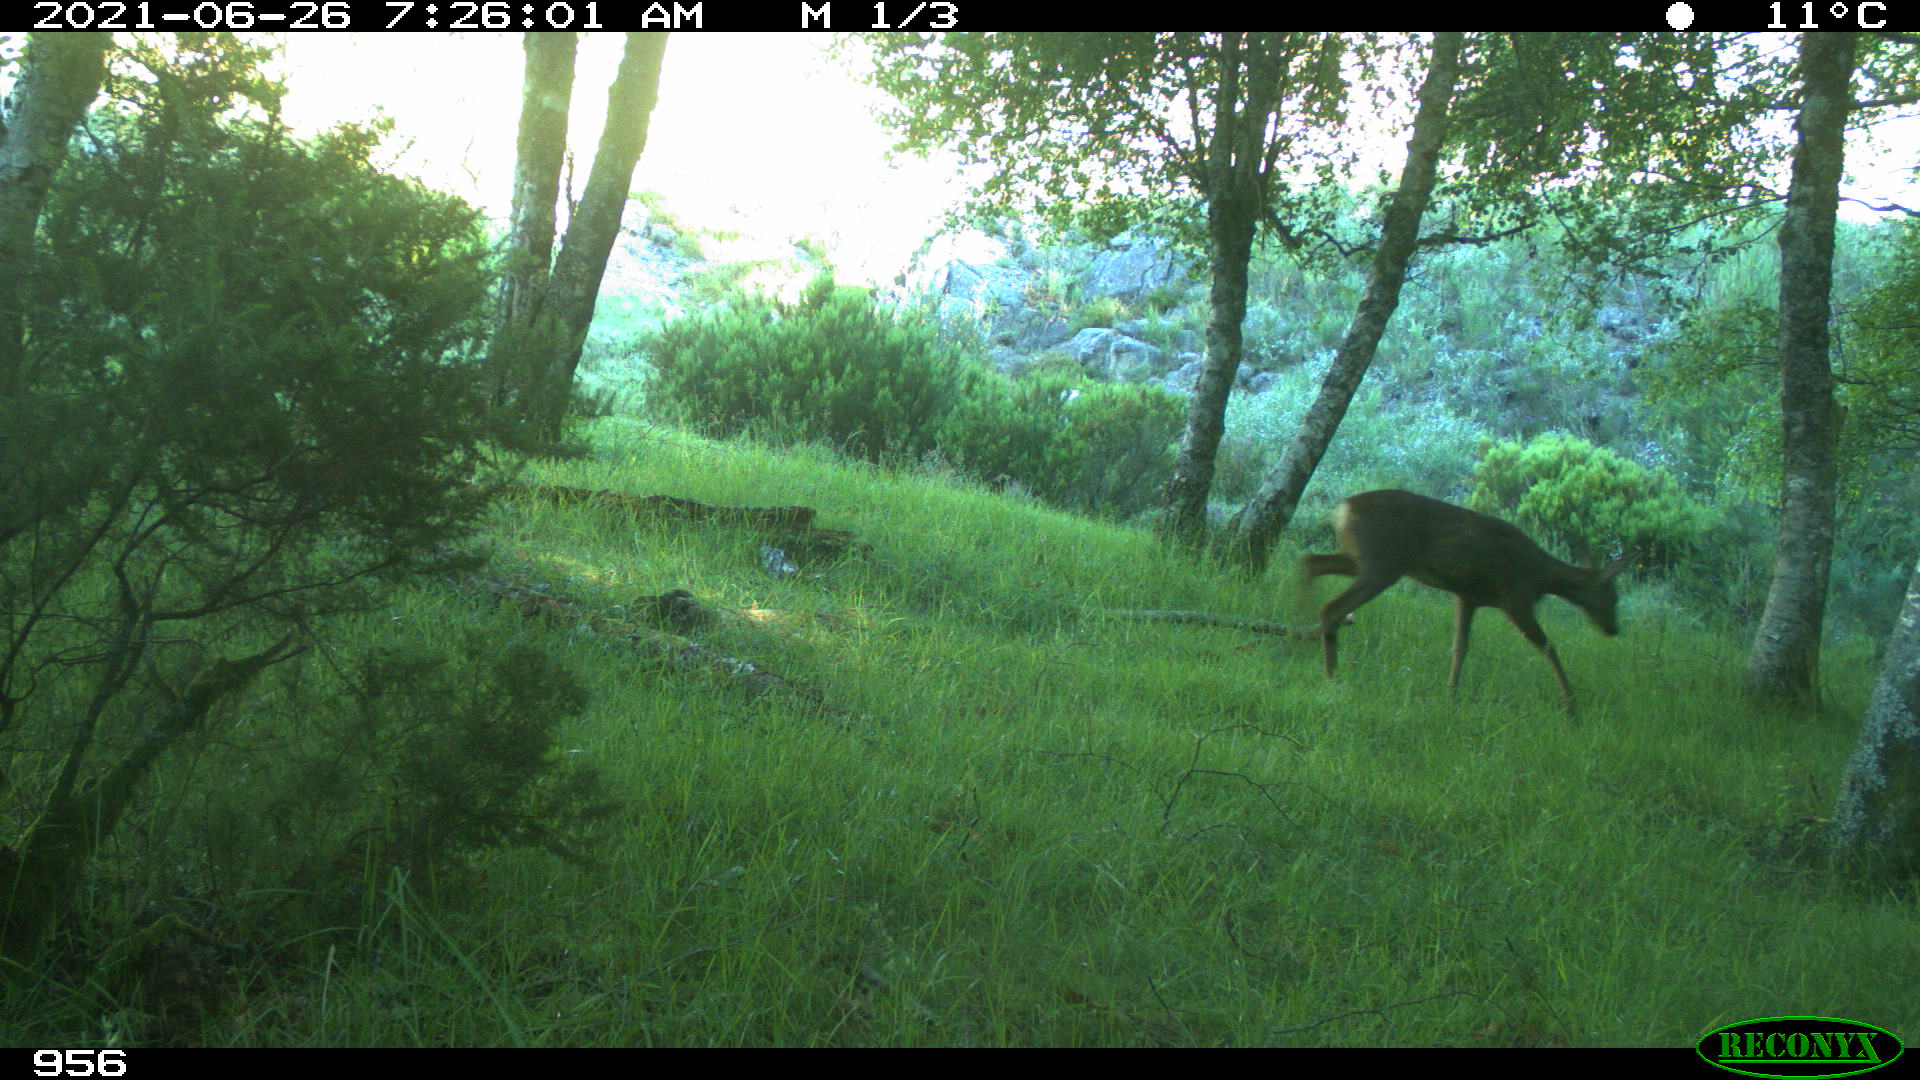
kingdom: Animalia
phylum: Chordata
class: Mammalia
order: Artiodactyla
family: Cervidae
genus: Capreolus
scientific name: Capreolus capreolus
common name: Western roe deer
